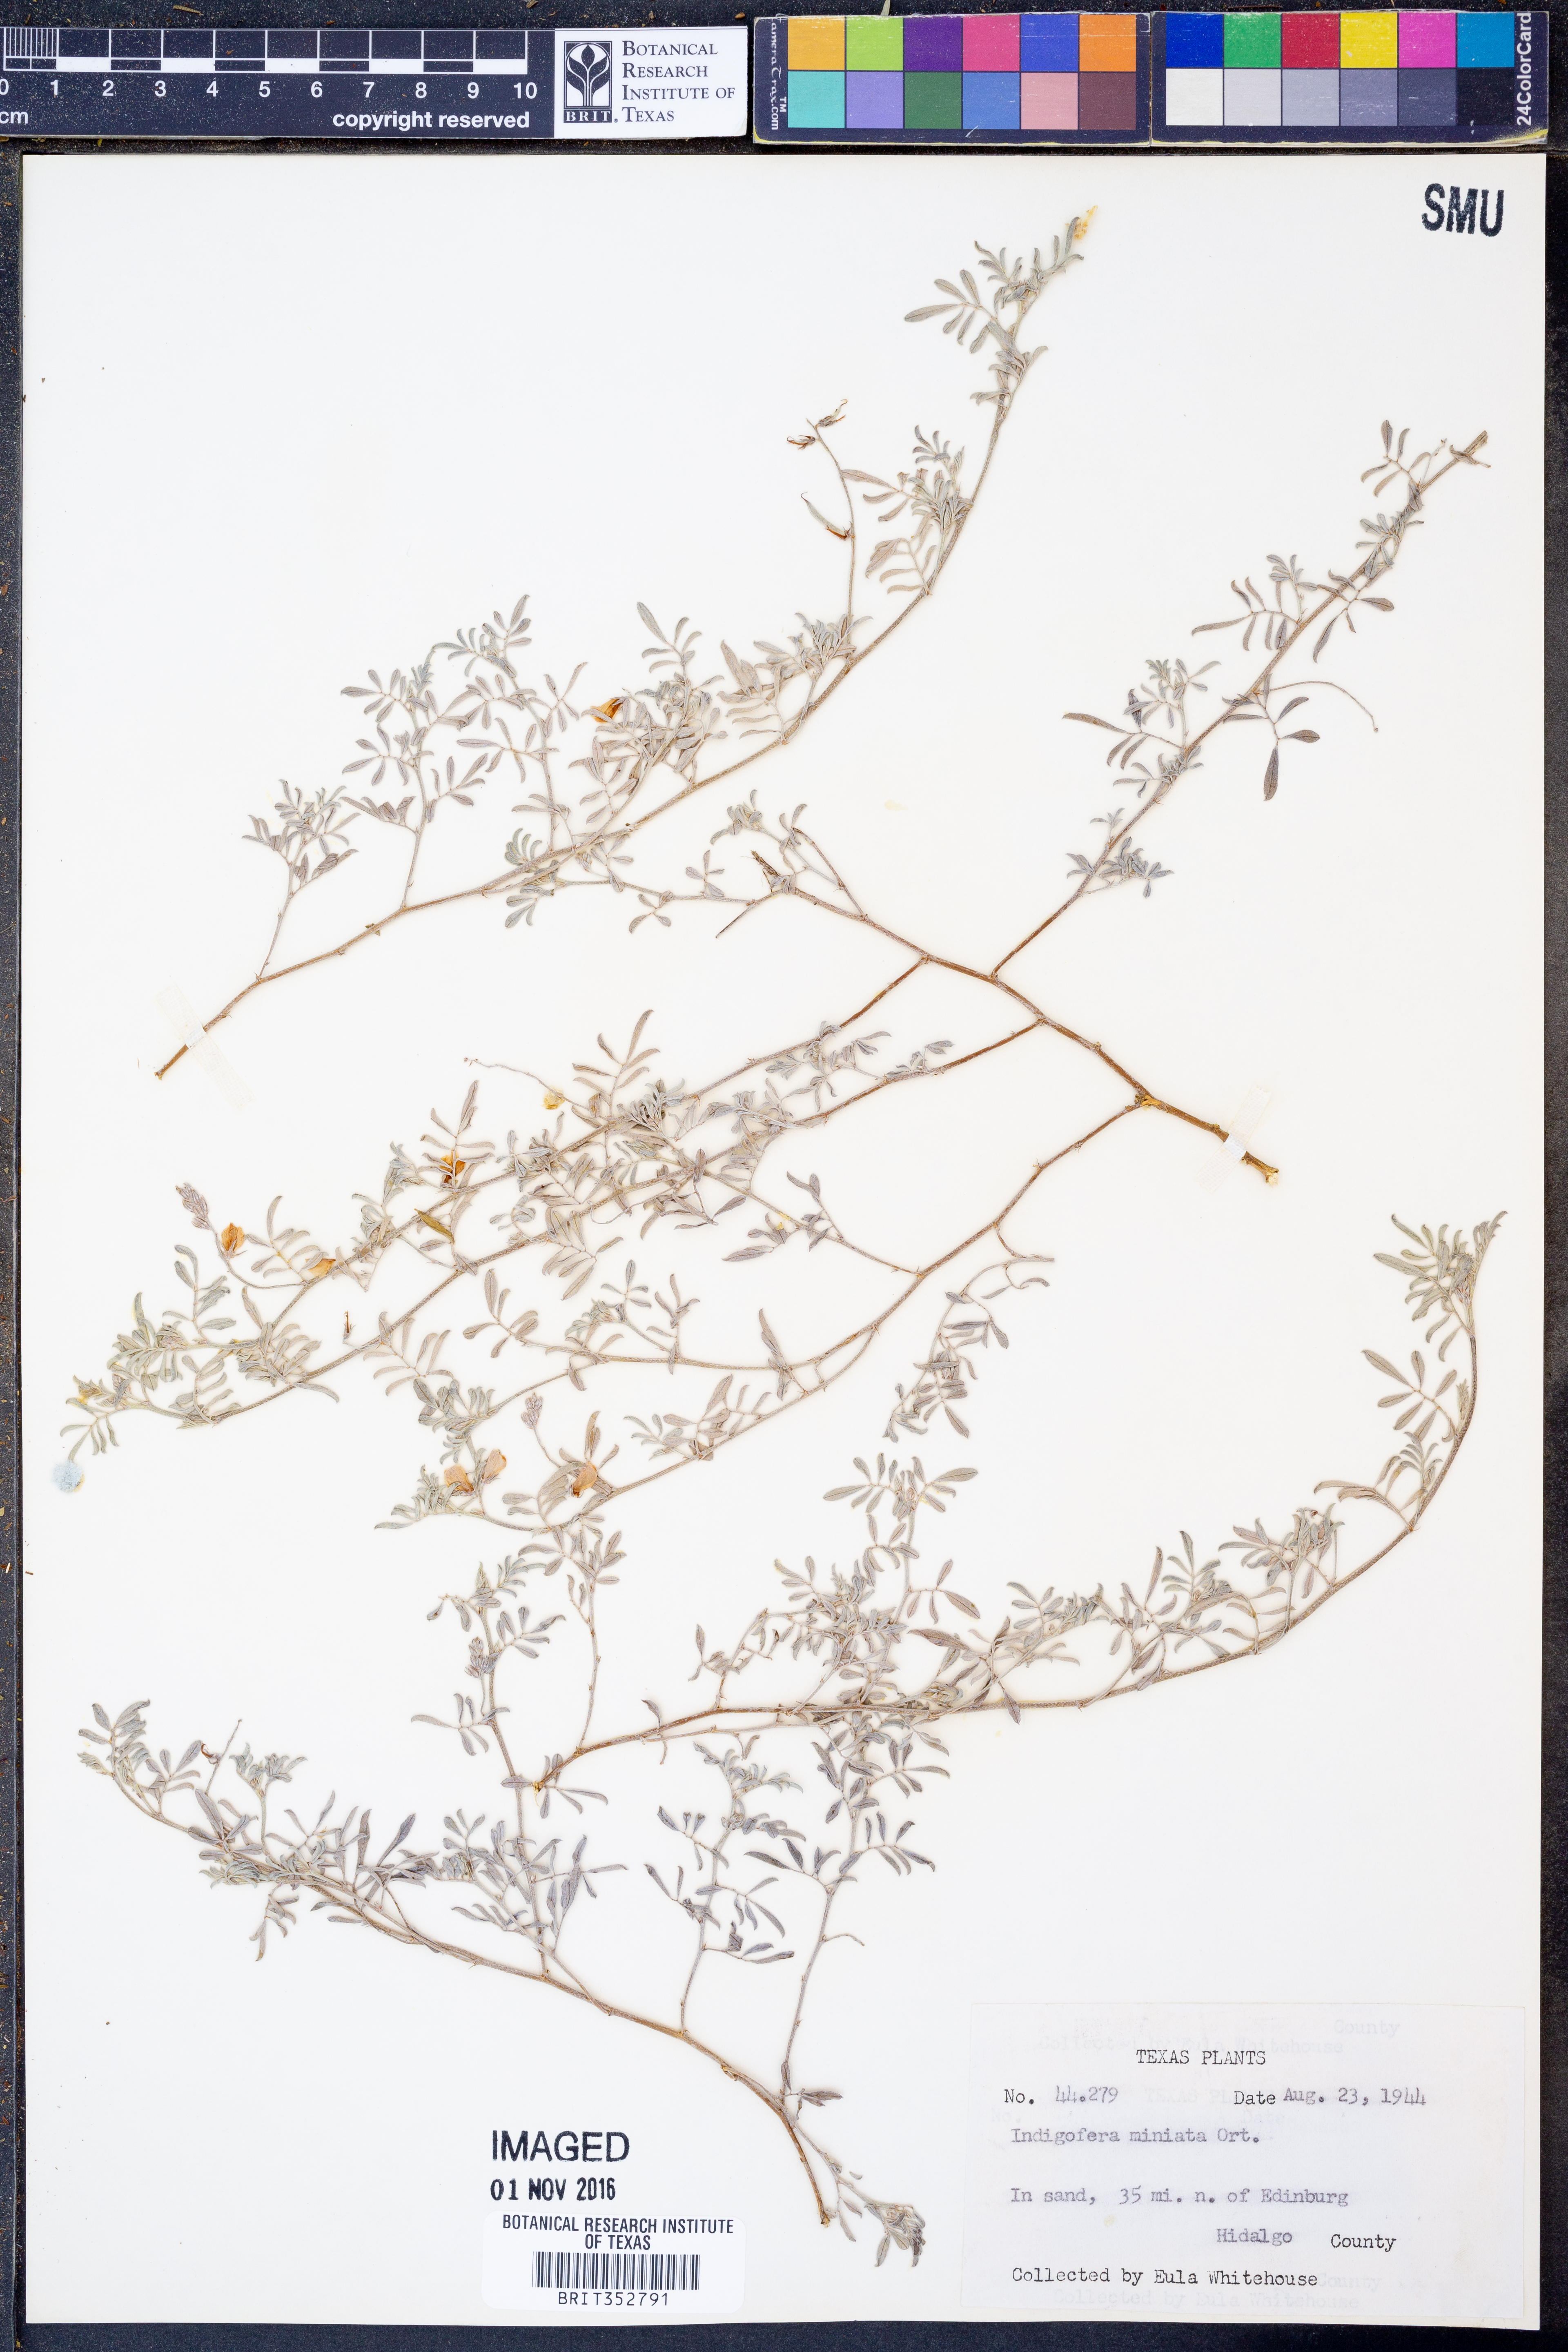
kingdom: Plantae
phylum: Tracheophyta
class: Magnoliopsida
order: Fabales
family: Fabaceae
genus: Indigofera
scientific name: Indigofera miniata
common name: Coast indigo
